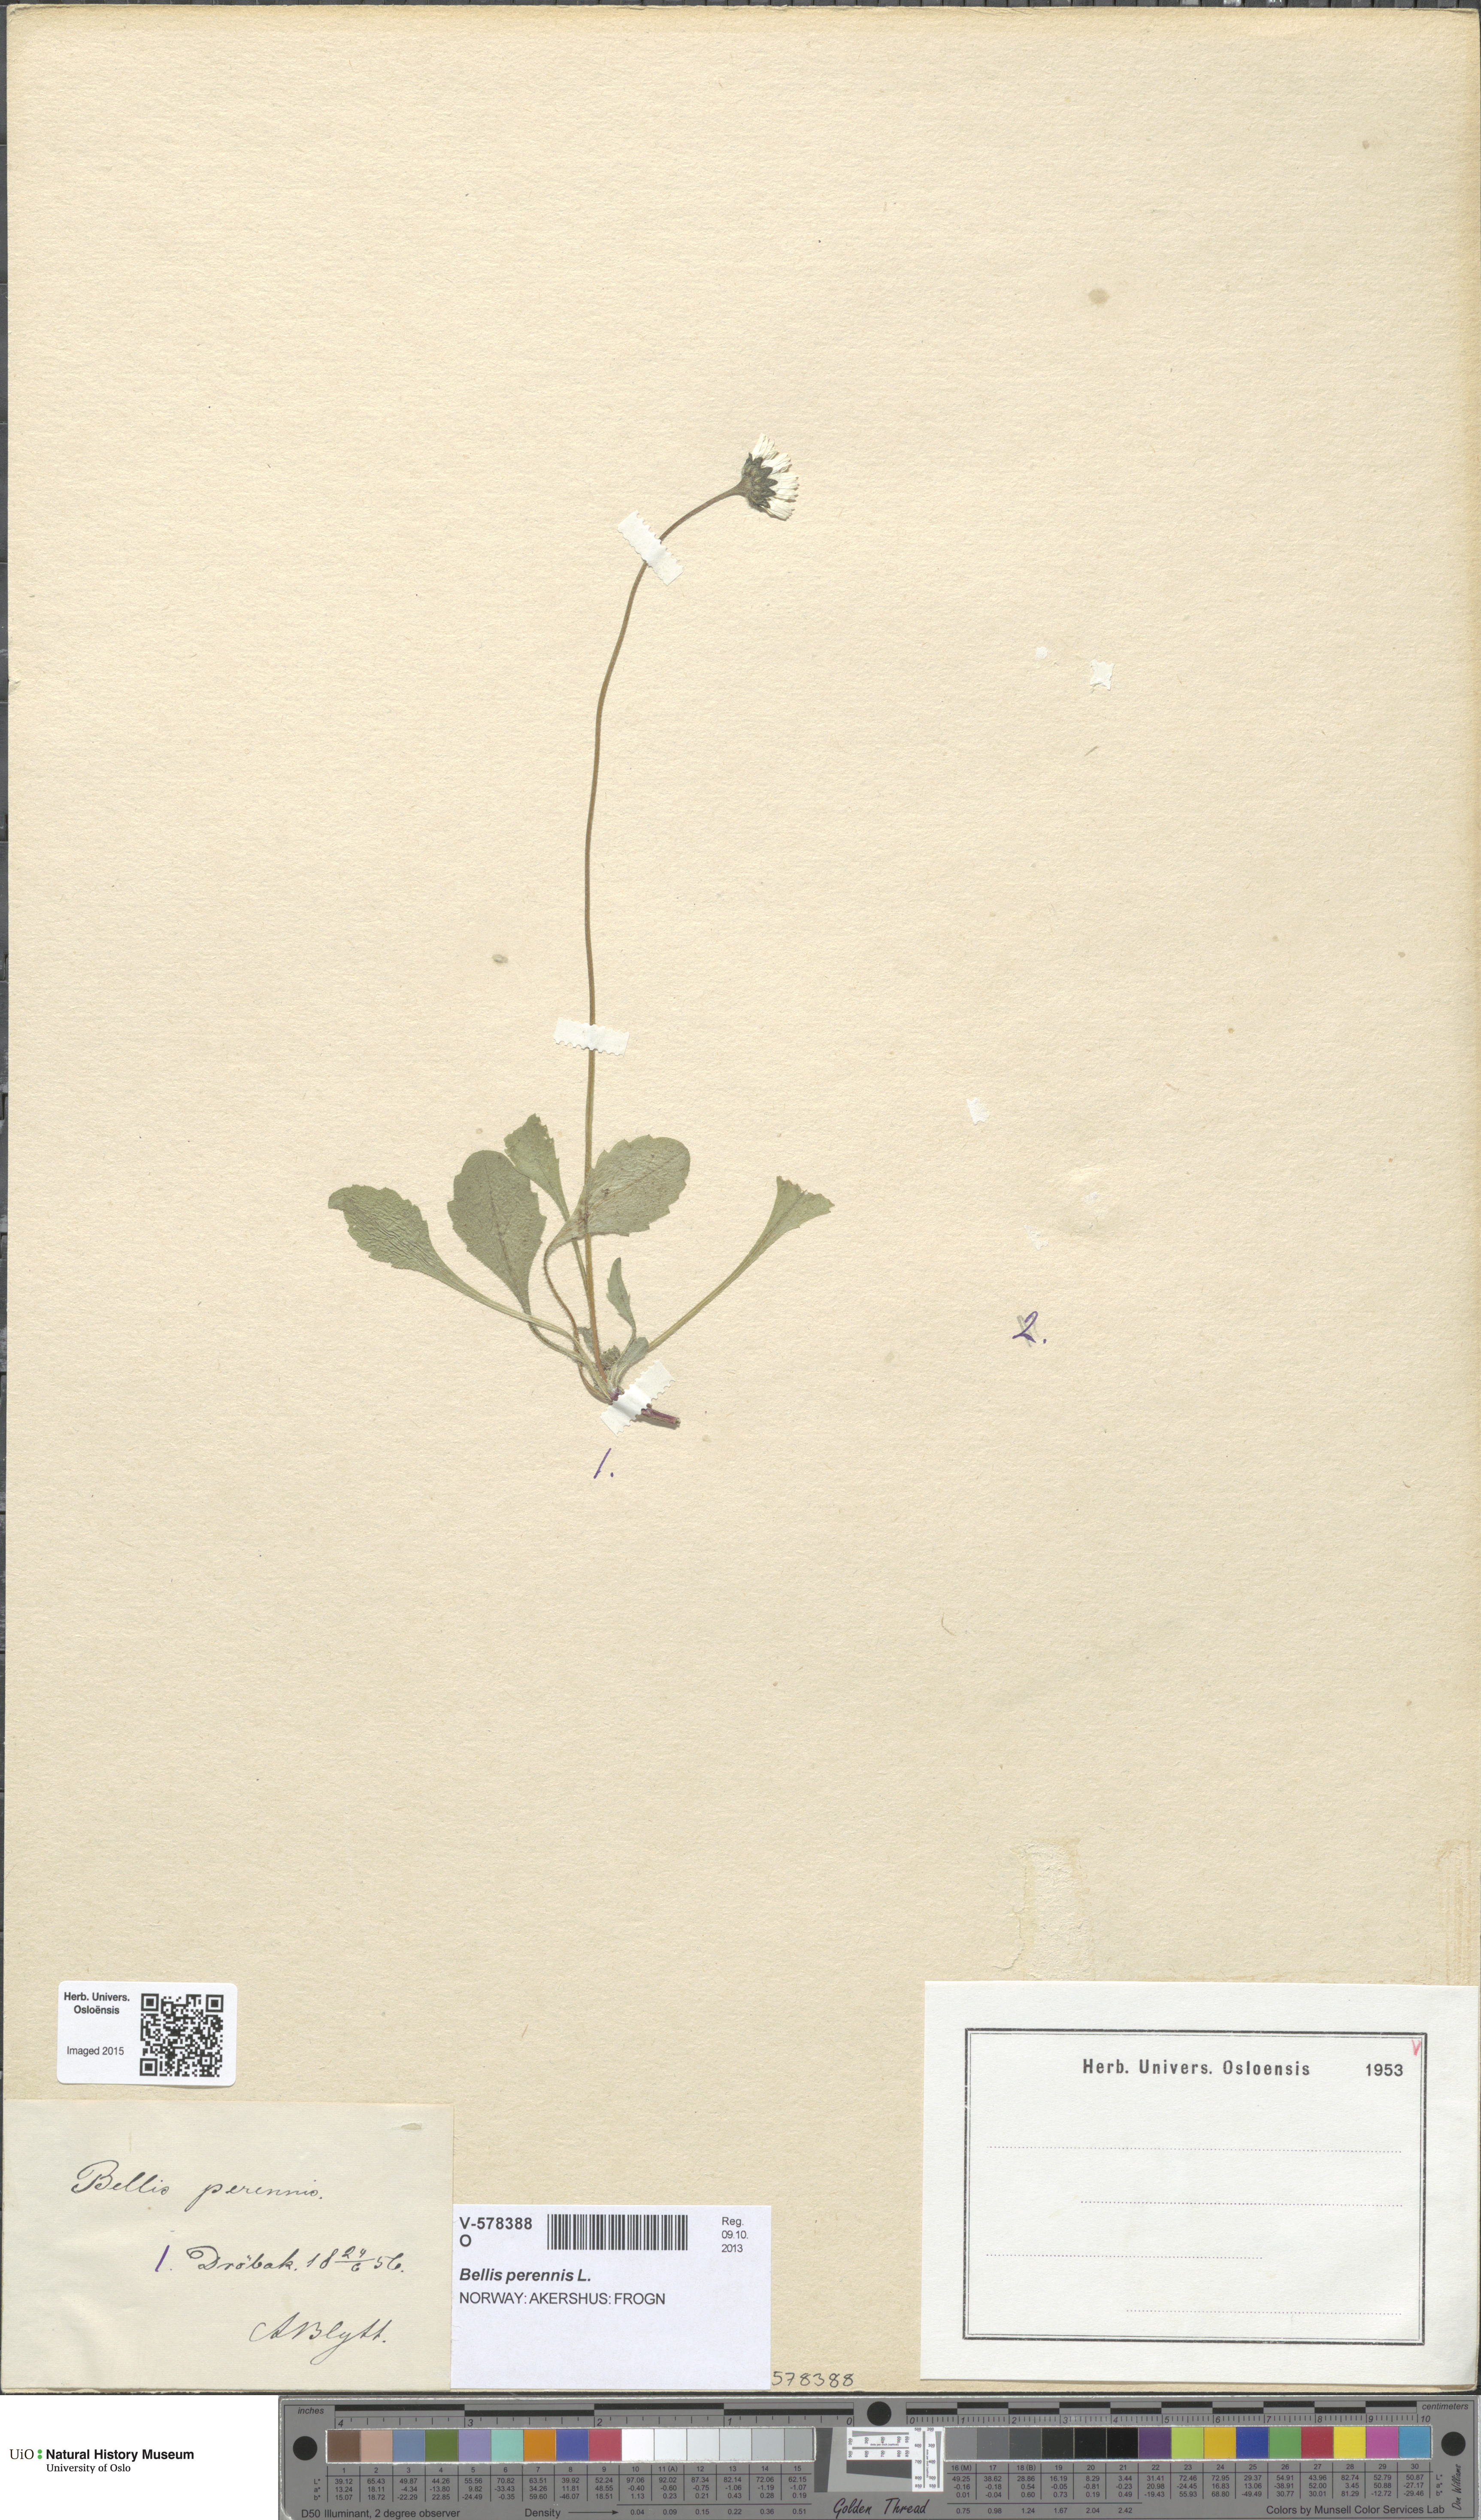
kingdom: Plantae
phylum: Tracheophyta
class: Magnoliopsida
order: Asterales
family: Asteraceae
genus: Bellis
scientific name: Bellis perennis
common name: Lawndaisy
